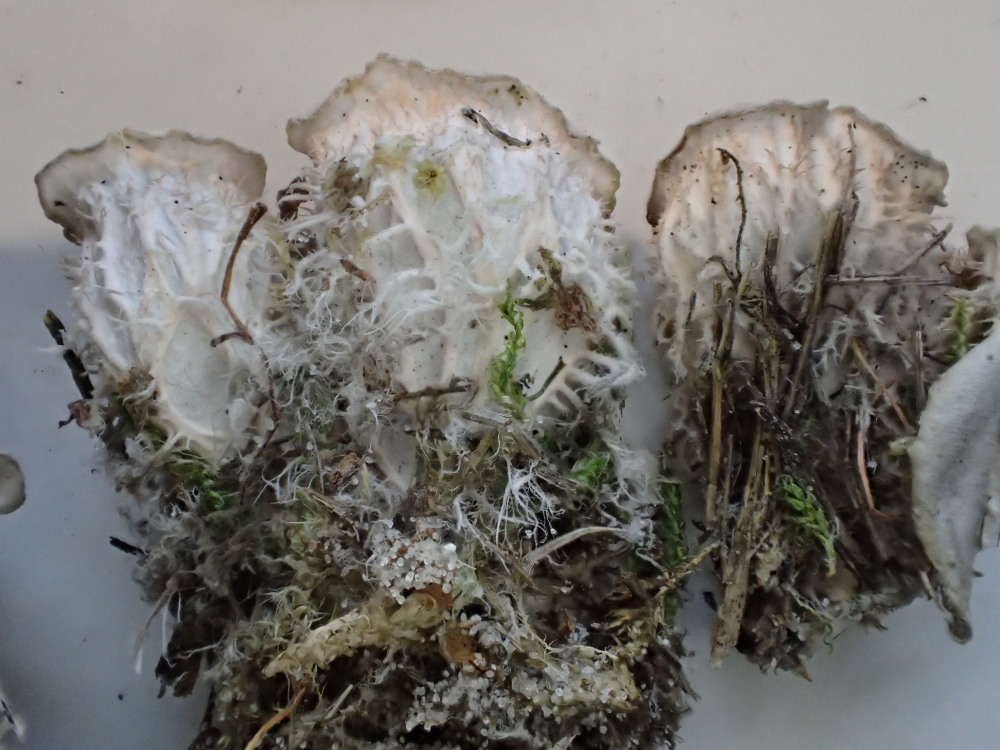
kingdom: Fungi
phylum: Ascomycota
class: Lecanoromycetes
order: Peltigerales
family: Peltigeraceae
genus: Peltigera
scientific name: Peltigera membranacea
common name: tynd skjoldlav
